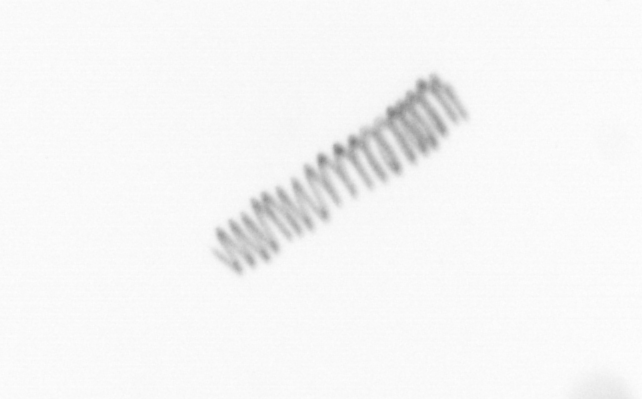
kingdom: Chromista
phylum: Ochrophyta
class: Bacillariophyceae
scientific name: Bacillariophyceae
